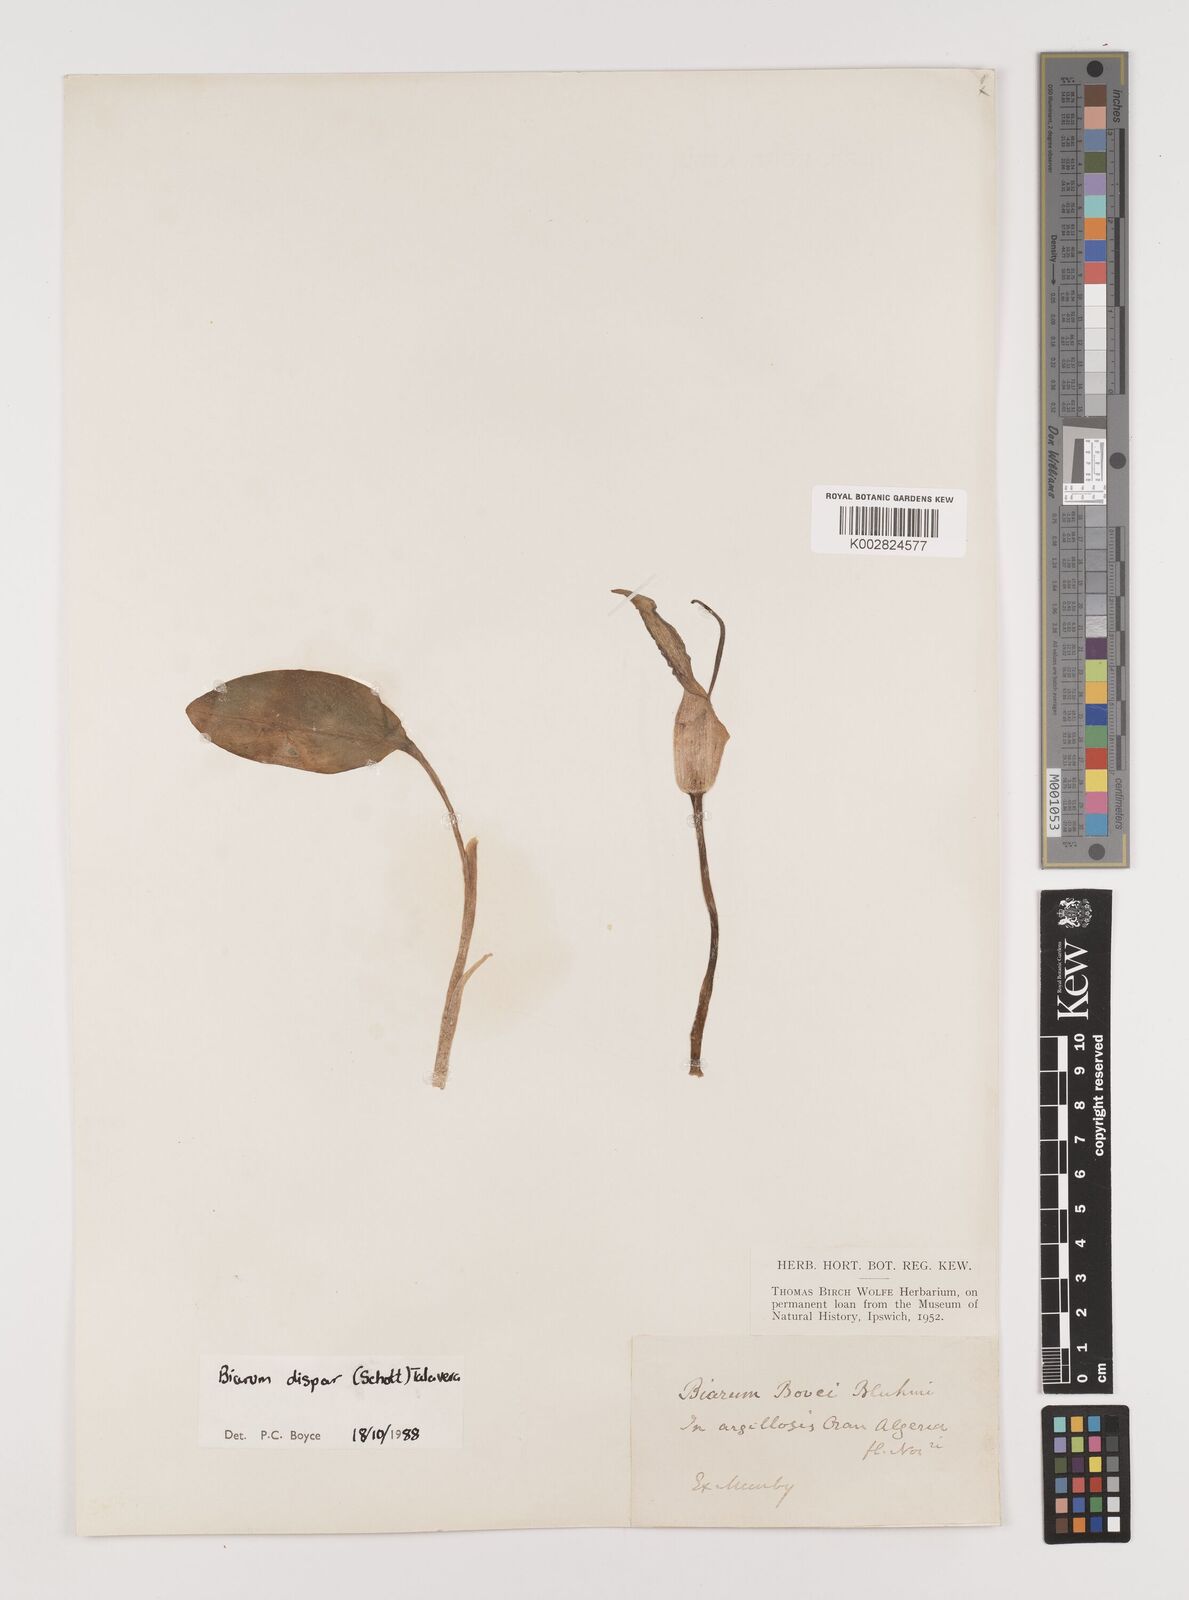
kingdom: Plantae
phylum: Tracheophyta
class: Liliopsida
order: Alismatales
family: Araceae
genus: Biarum
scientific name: Biarum dispar
